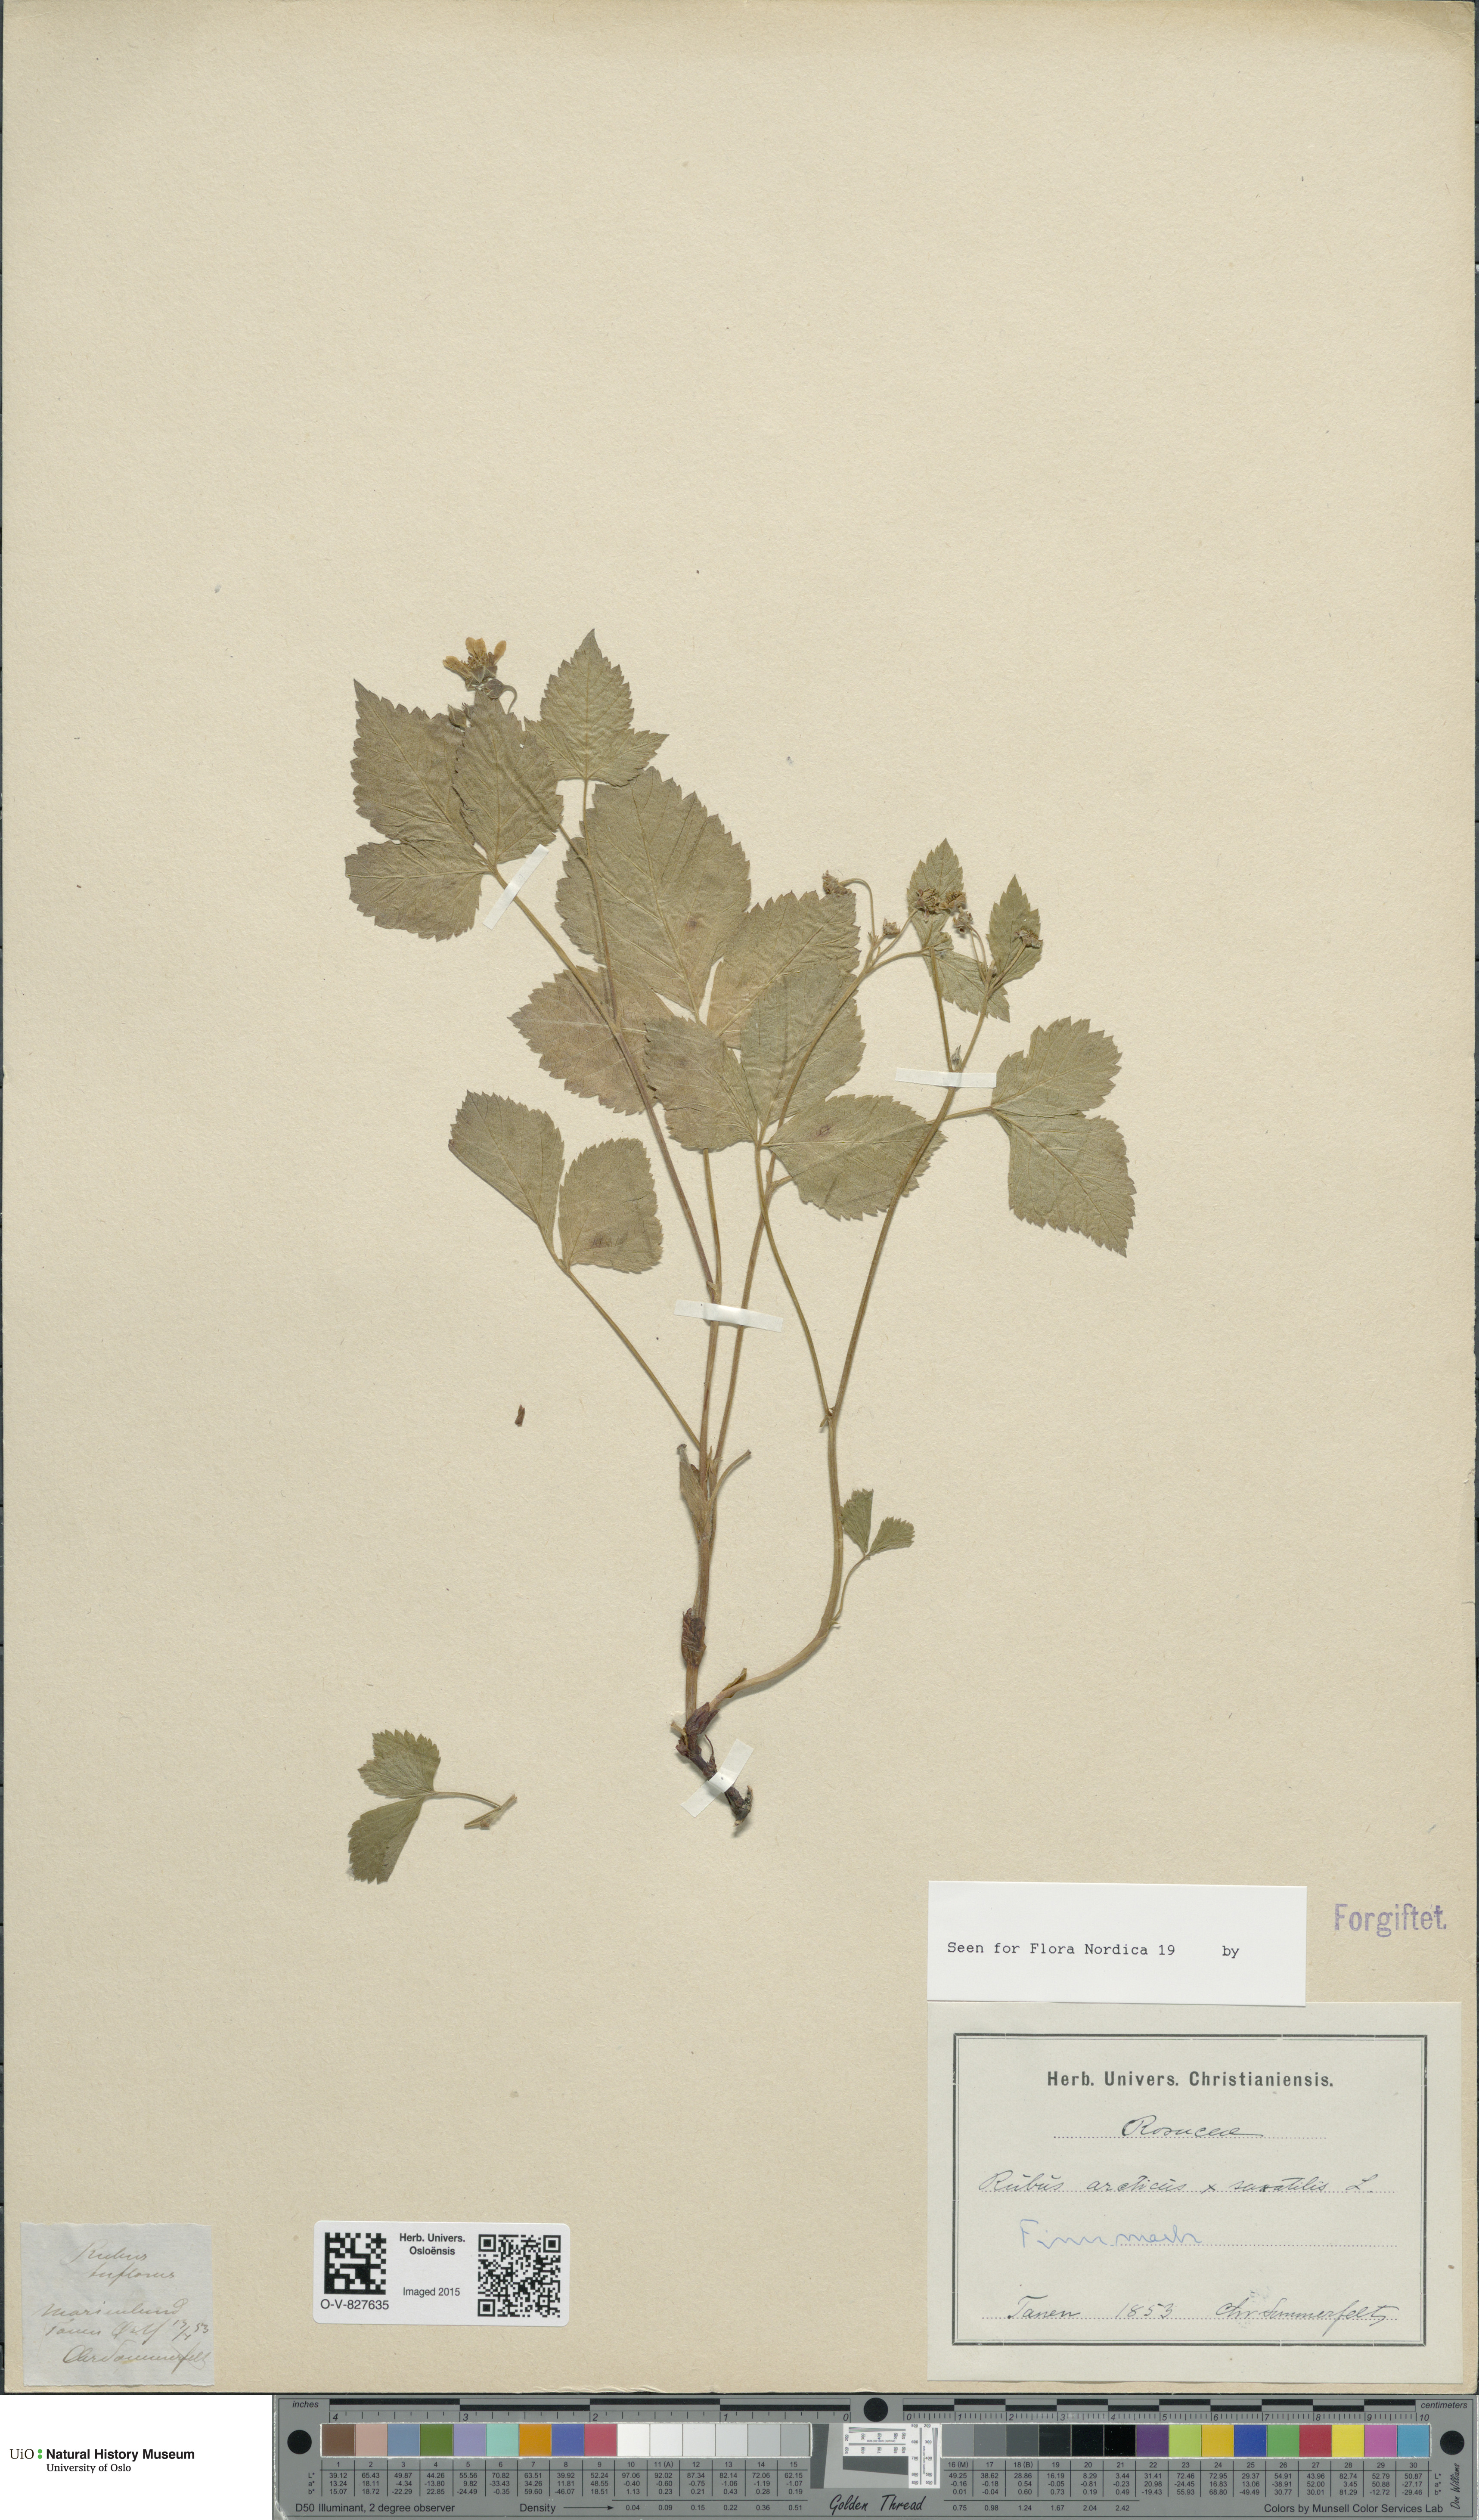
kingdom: Plantae
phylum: Tracheophyta
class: Magnoliopsida
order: Rosales
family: Rosaceae
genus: Rubus
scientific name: Rubus
